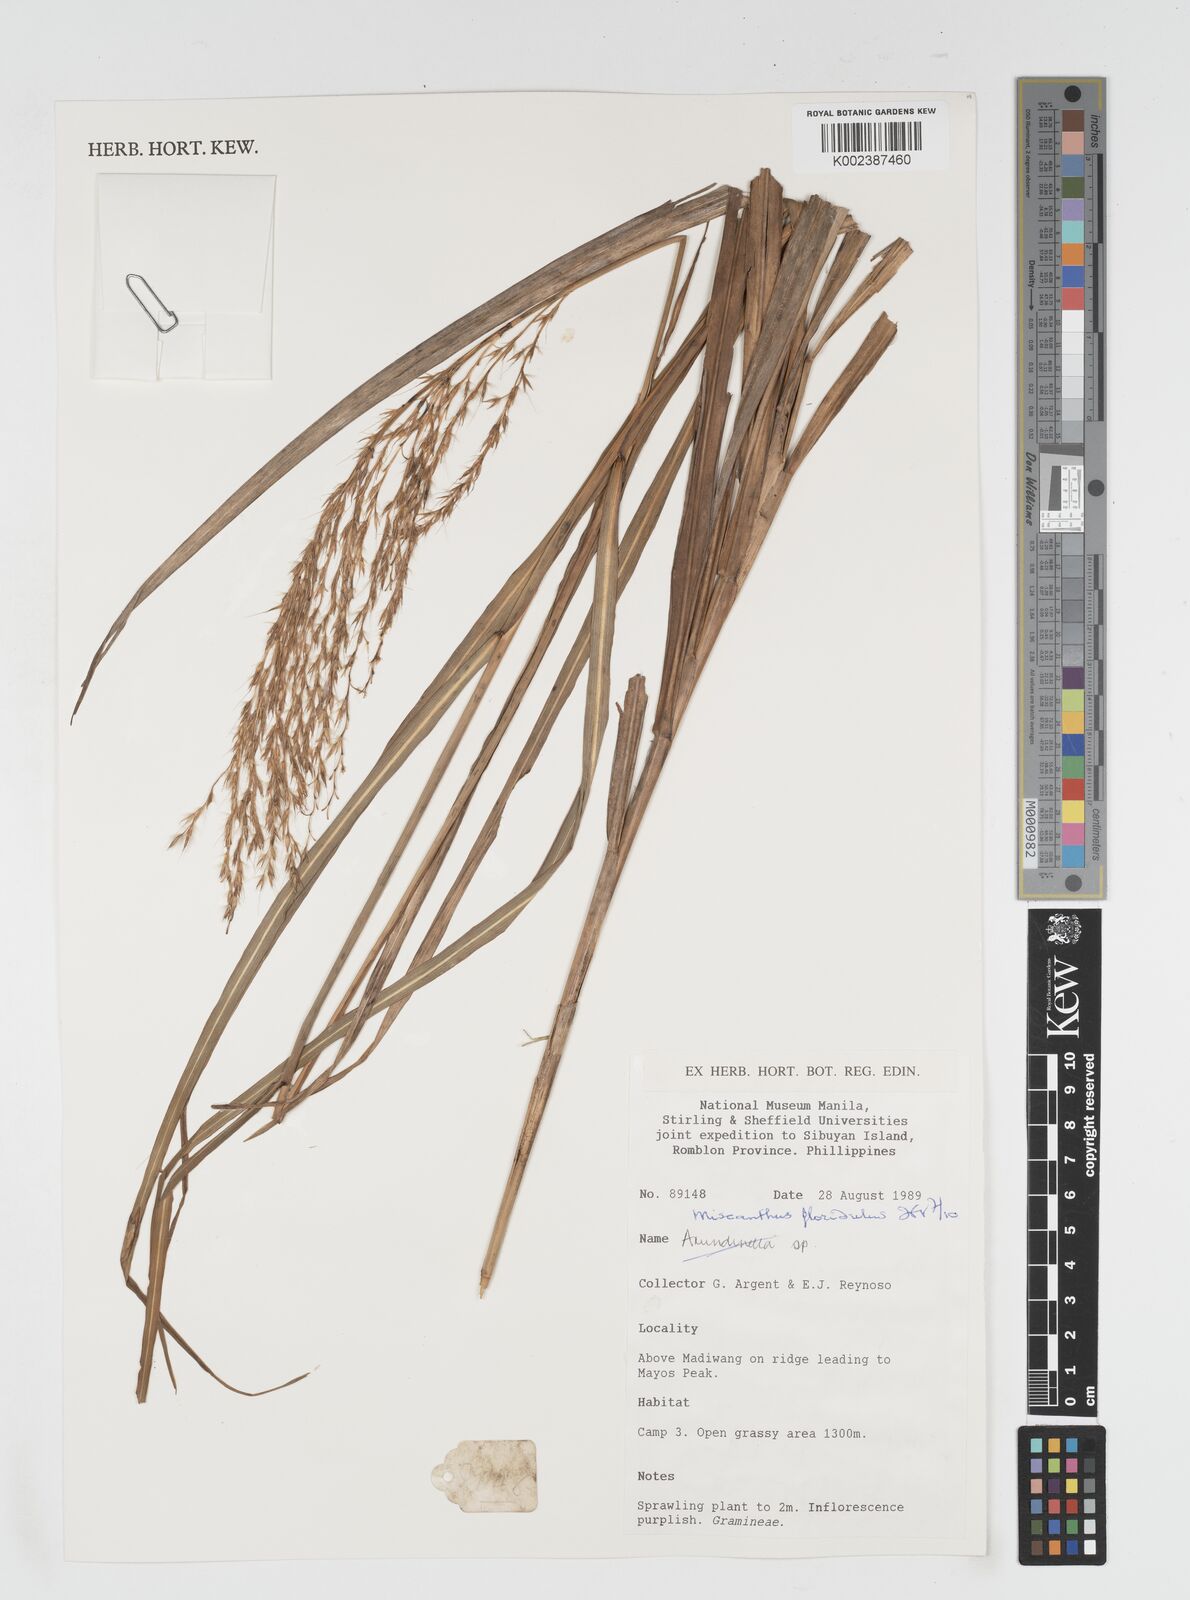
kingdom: Plantae
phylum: Tracheophyta
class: Liliopsida
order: Poales
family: Poaceae
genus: Miscanthus
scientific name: Miscanthus floridulus
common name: Pacific island silvergrass
